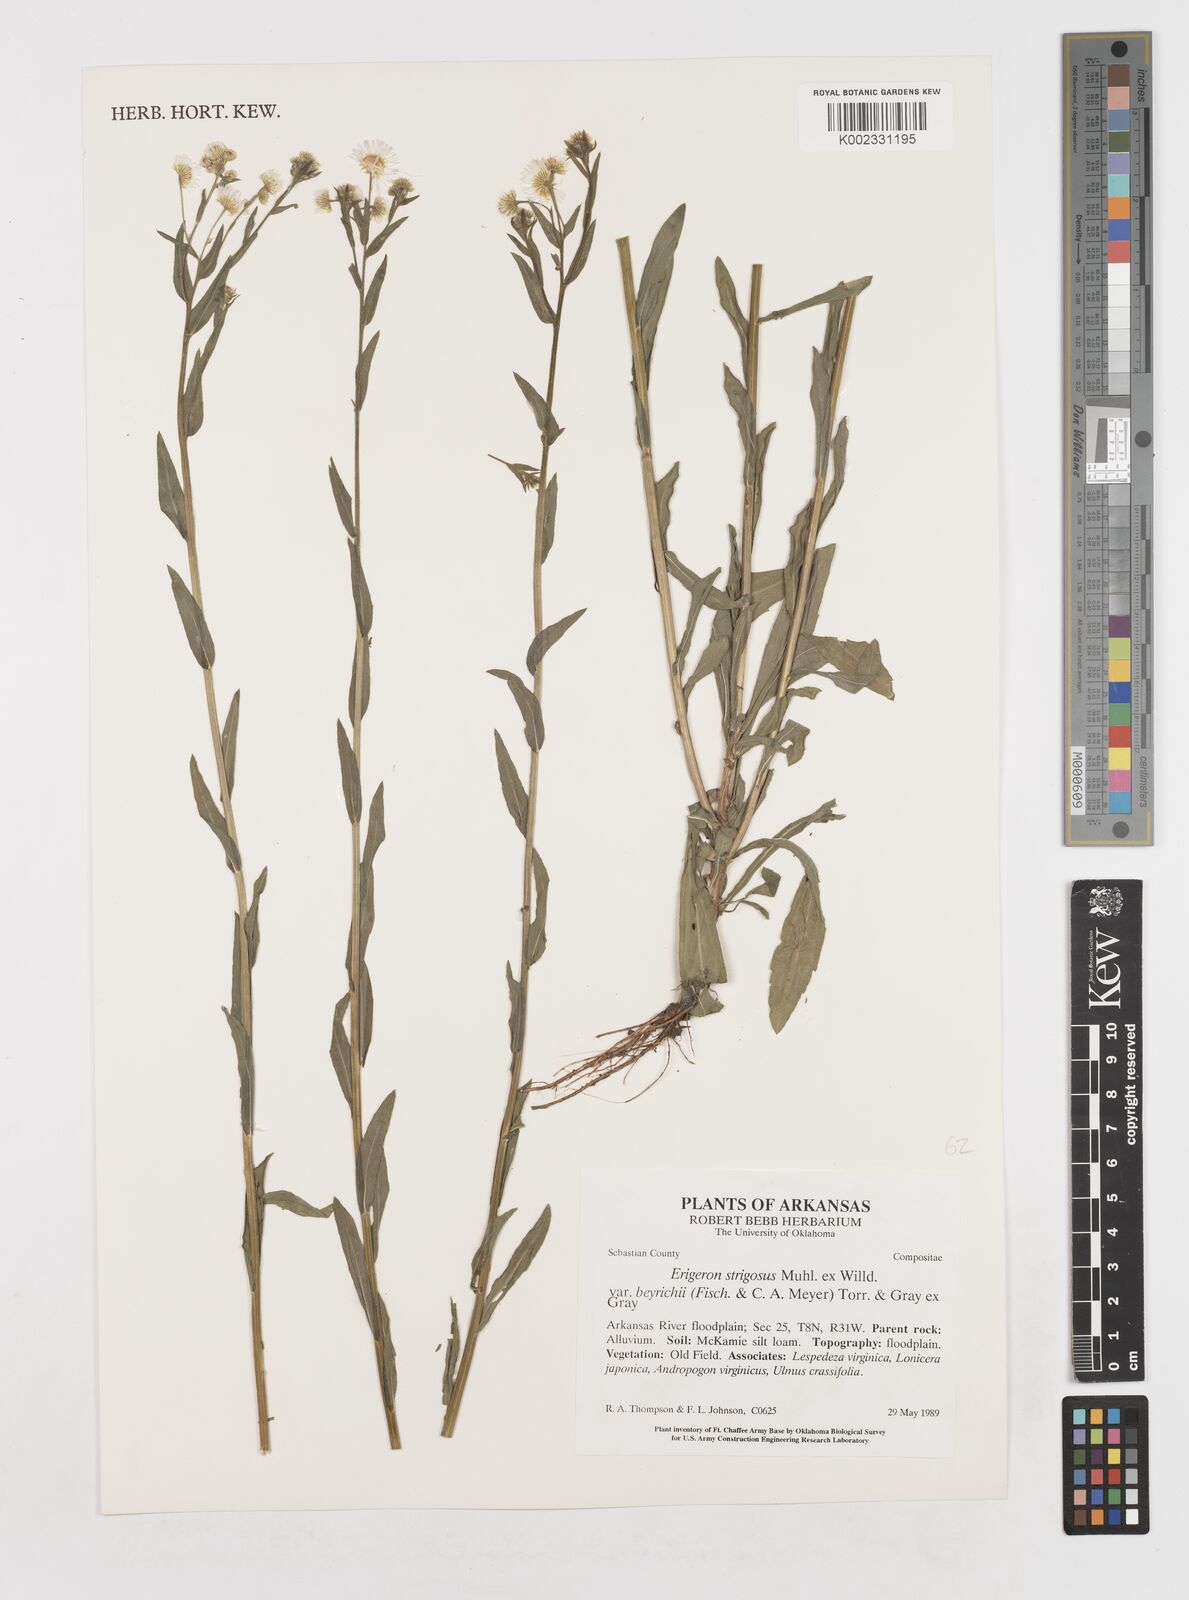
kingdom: Plantae
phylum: Tracheophyta
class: Magnoliopsida
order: Asterales
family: Asteraceae
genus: Erigeron
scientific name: Erigeron strigosus
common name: Common eastern fleabane
